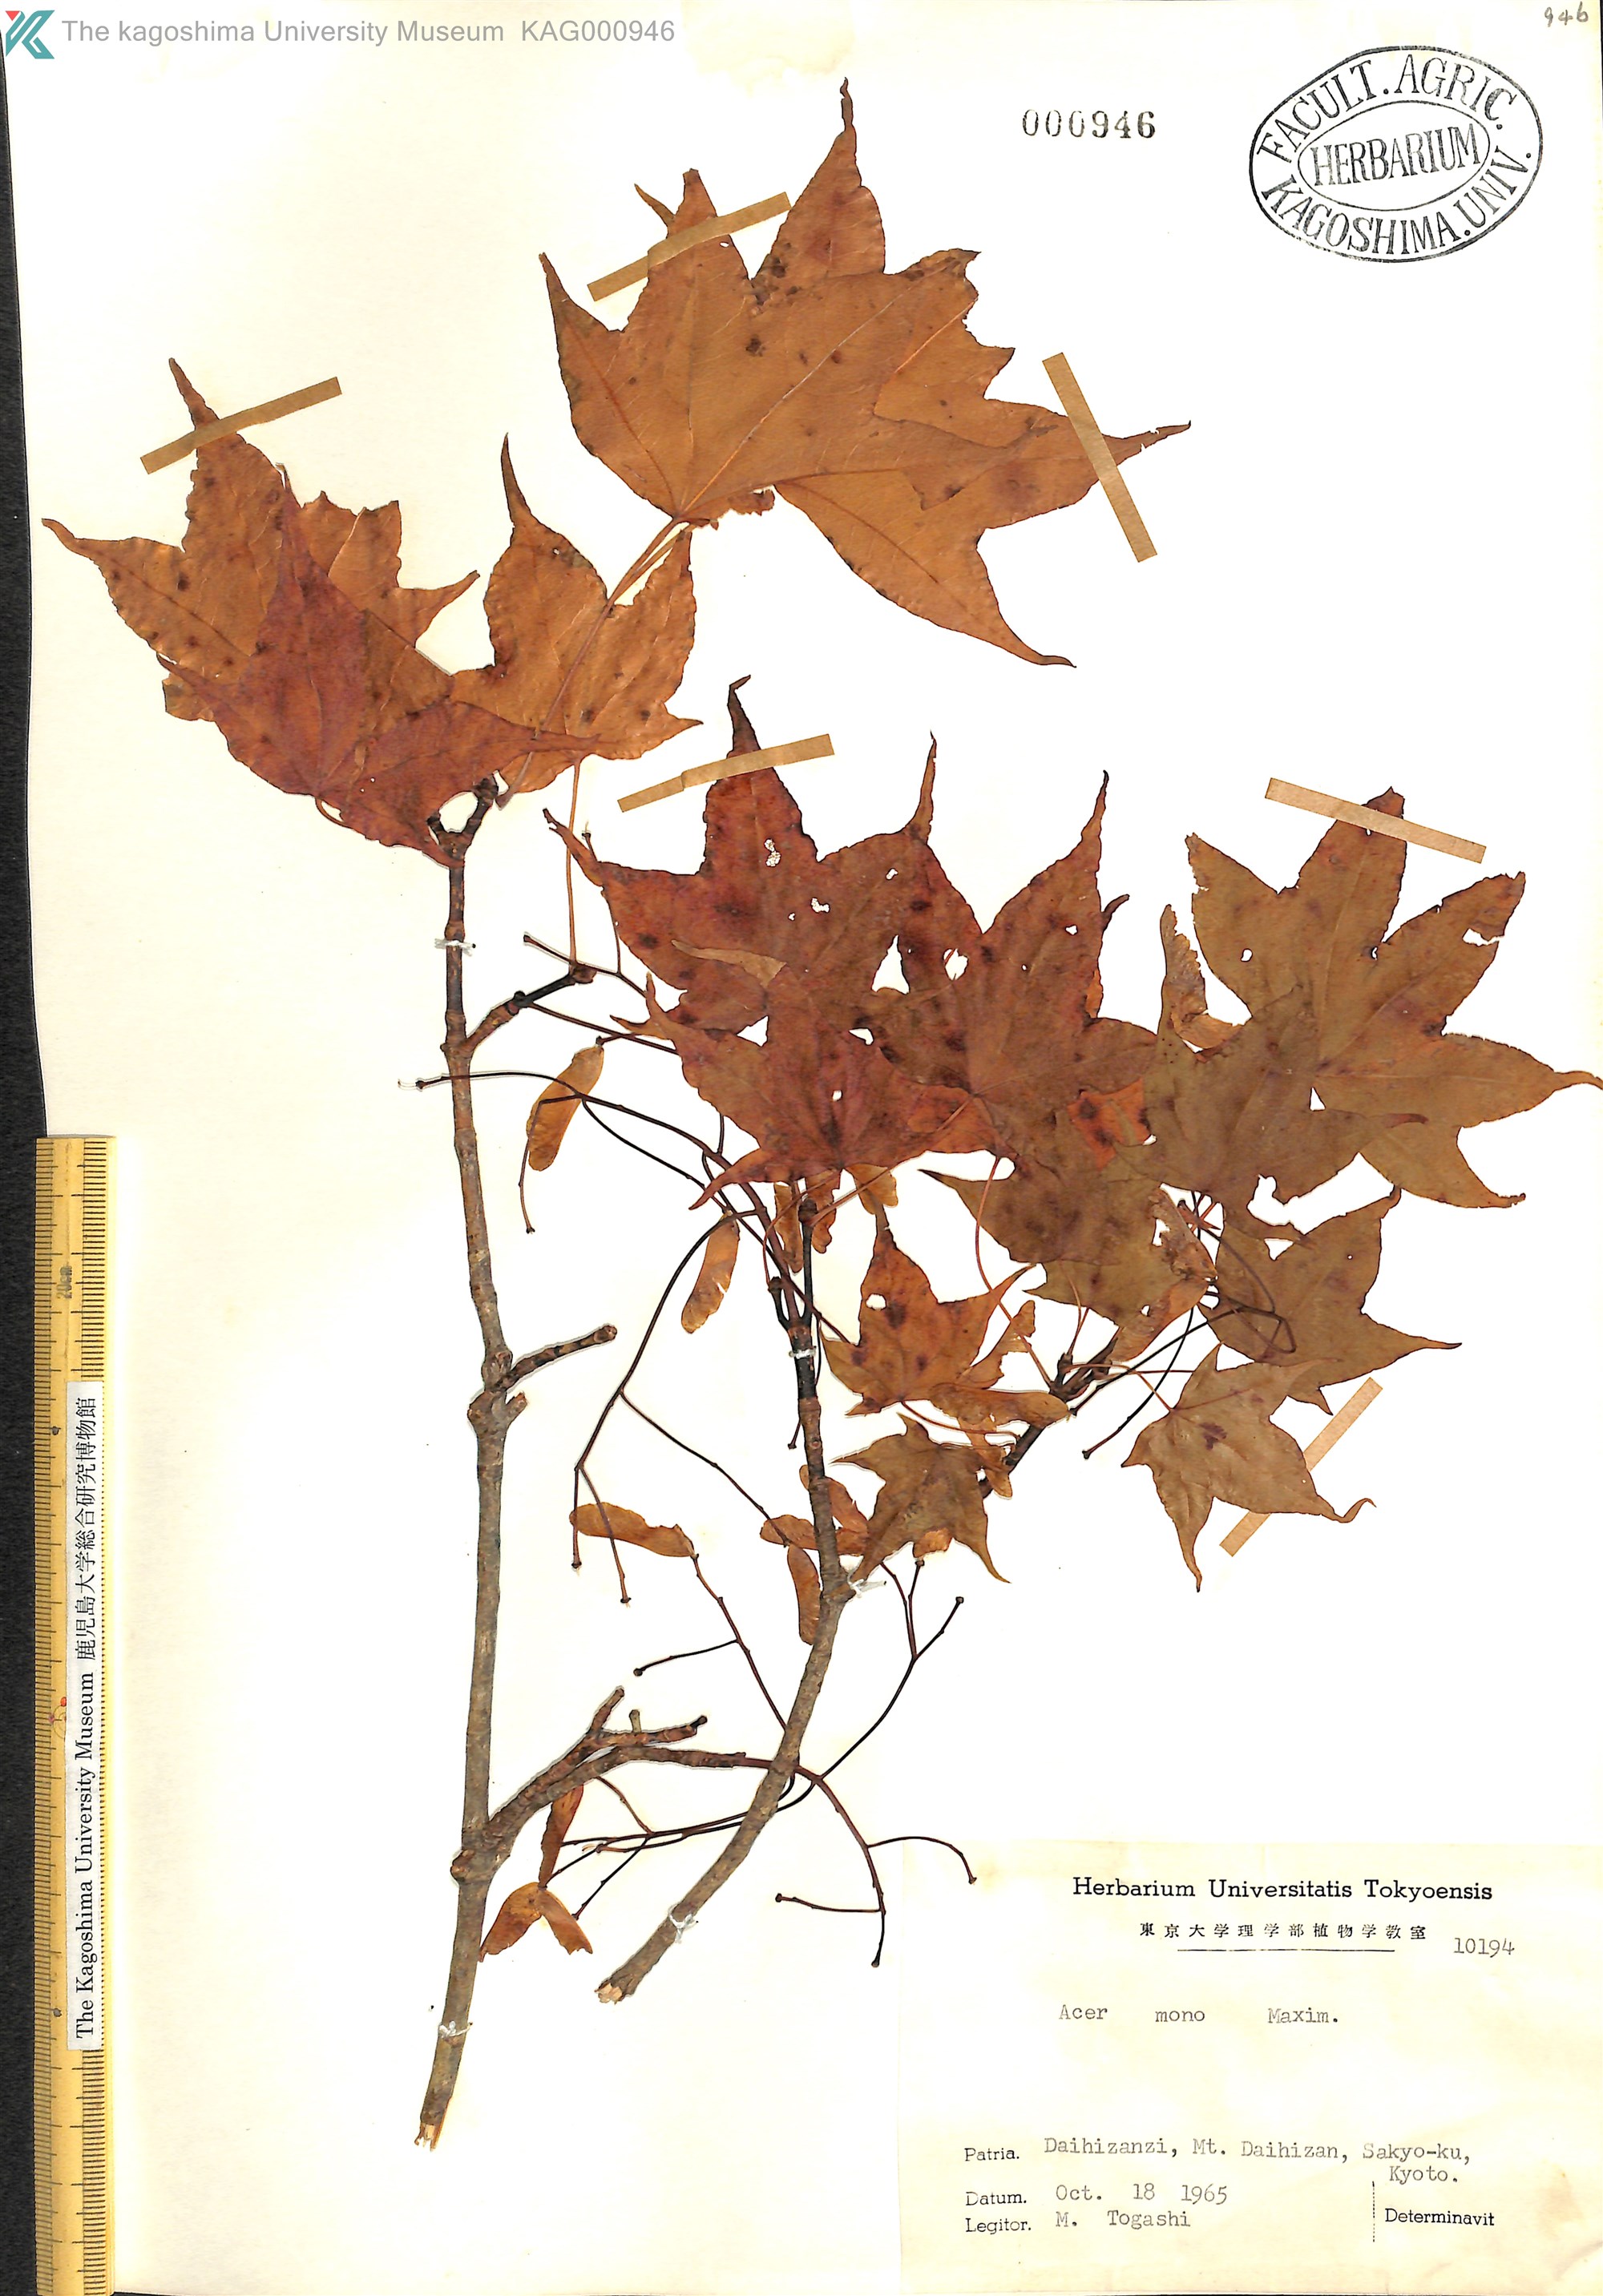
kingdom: Plantae
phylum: Tracheophyta
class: Magnoliopsida
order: Sapindales
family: Sapindaceae
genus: Acer
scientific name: Acer pictum
